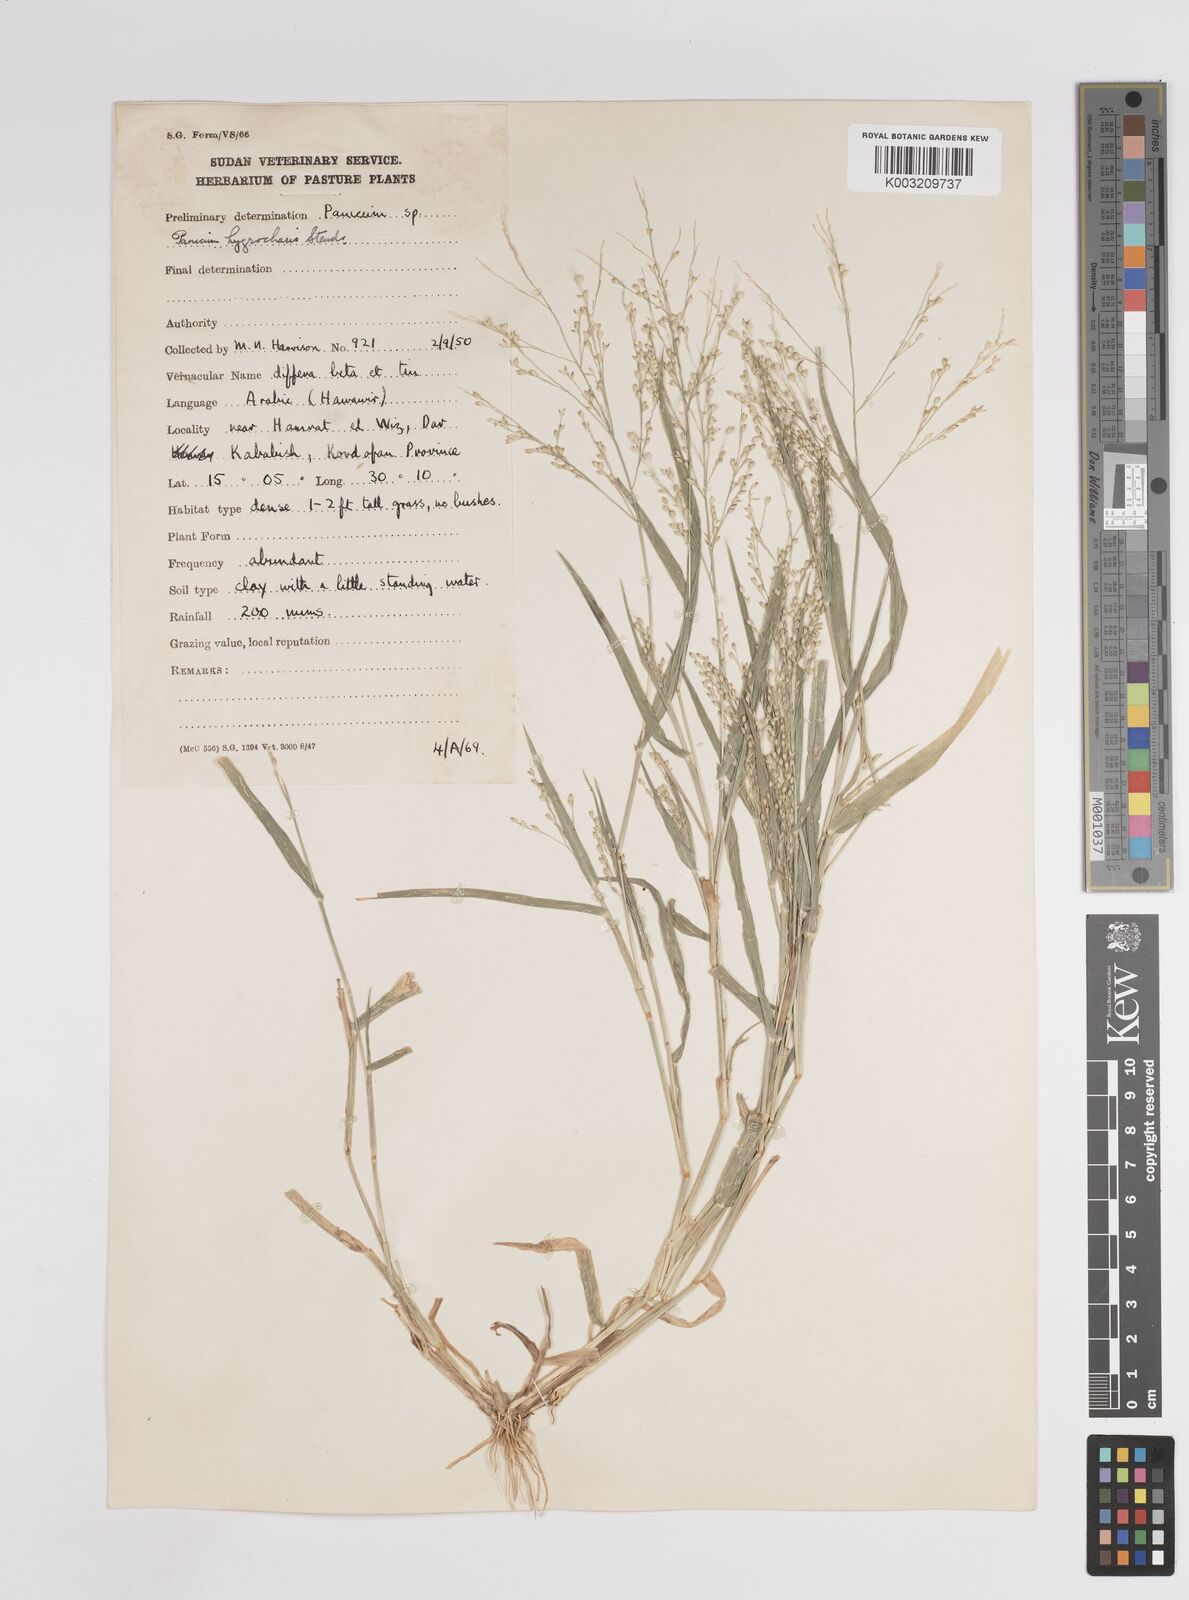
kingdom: Plantae
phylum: Tracheophyta
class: Liliopsida
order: Poales
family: Poaceae
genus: Panicum
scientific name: Panicum
